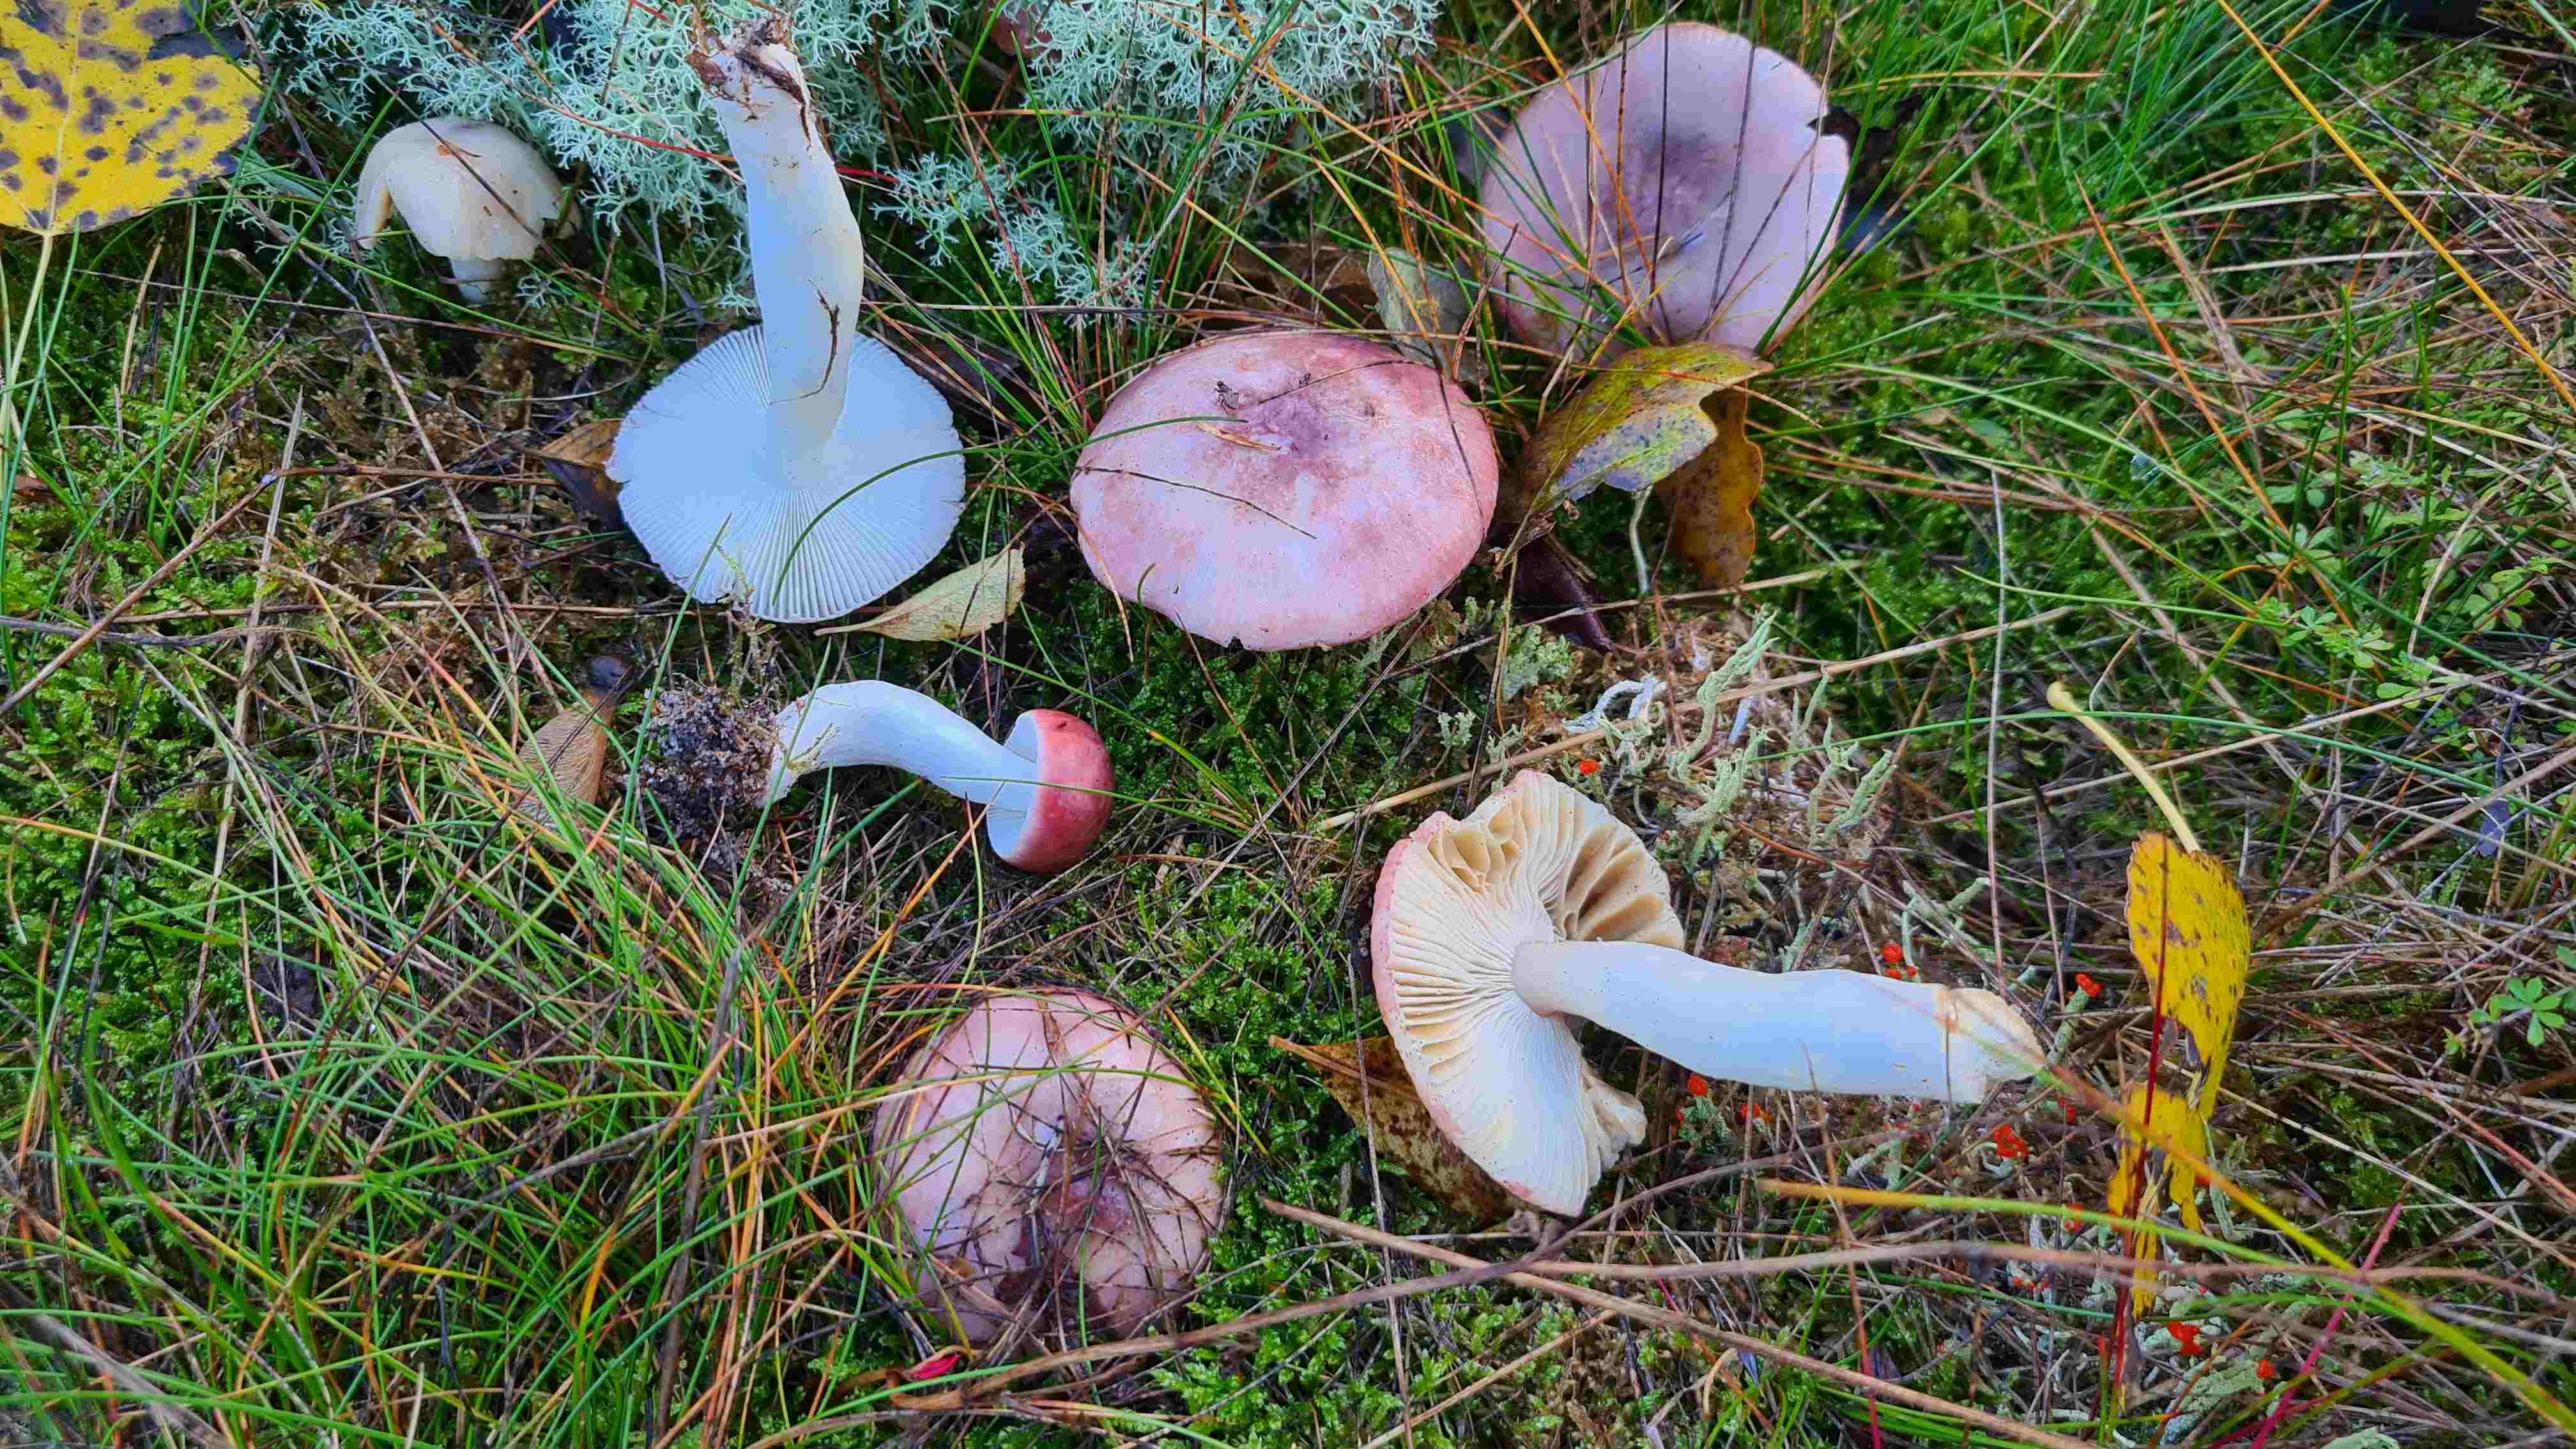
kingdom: Fungi
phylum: Basidiomycota
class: Agaricomycetes
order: Russulales
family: Russulaceae
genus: Russula
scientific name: Russula
